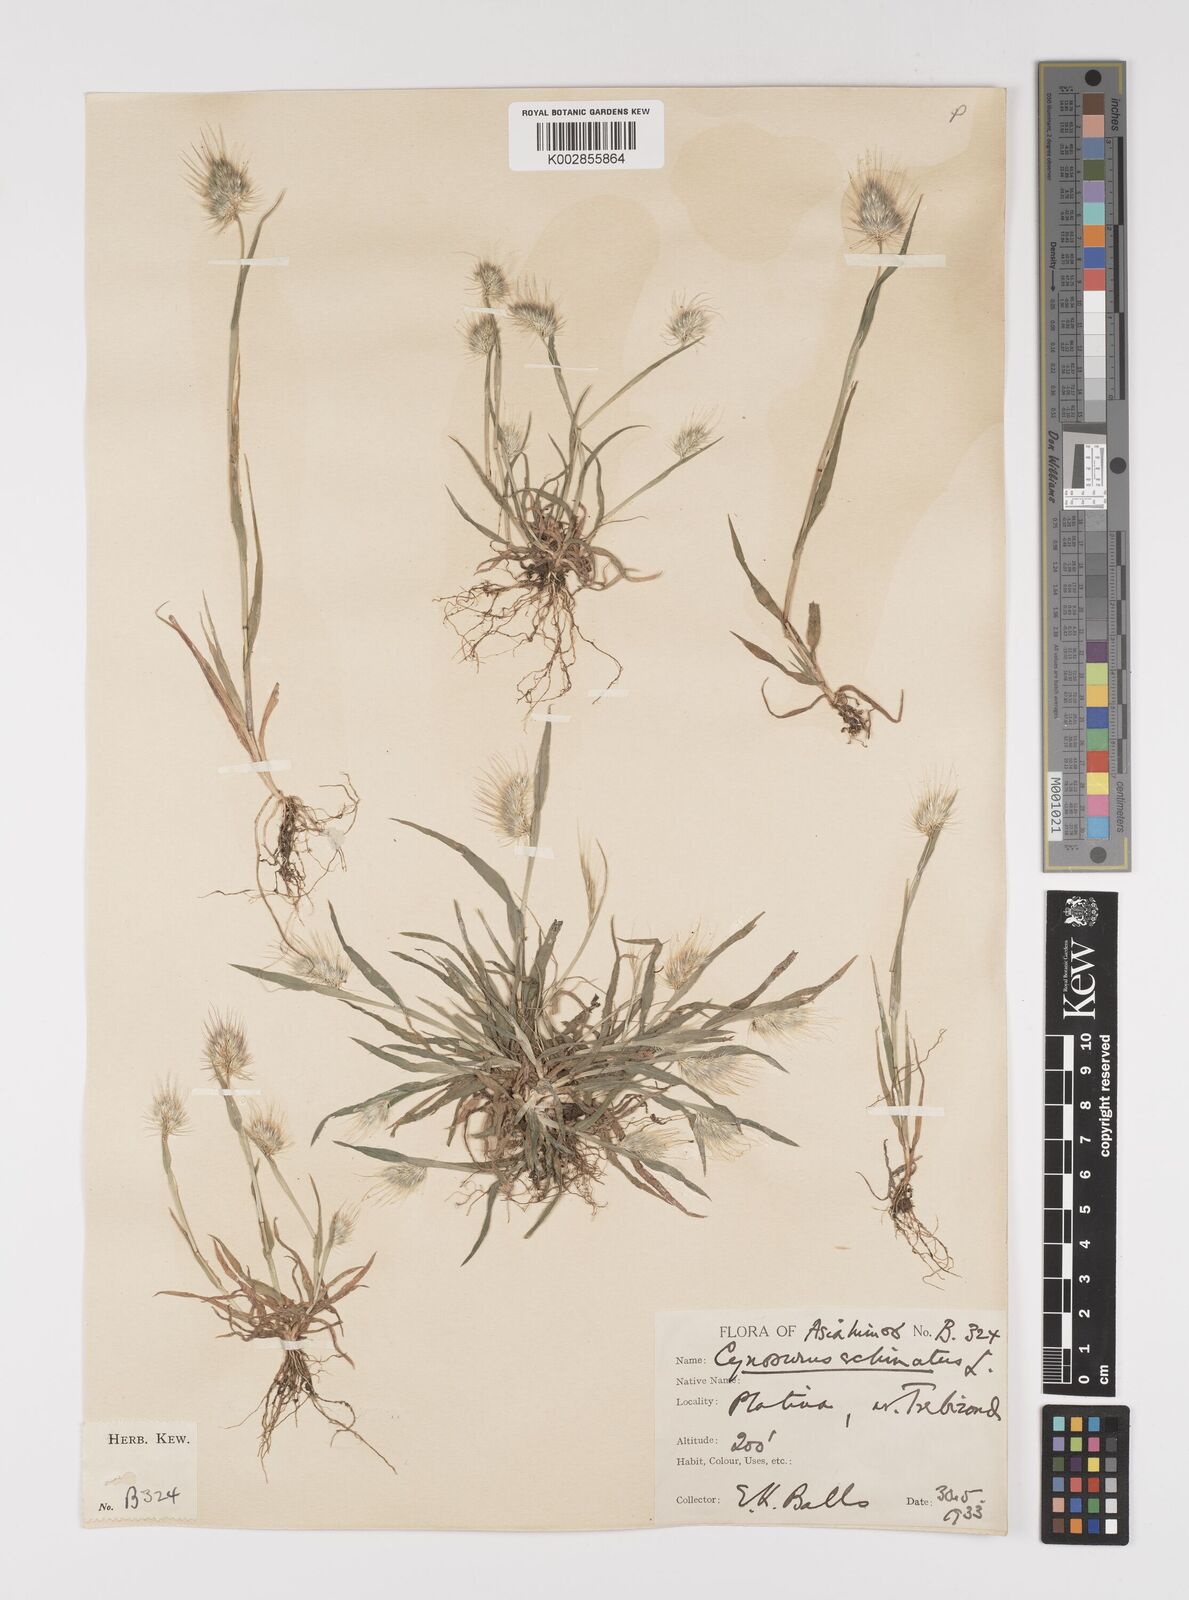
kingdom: Plantae
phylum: Tracheophyta
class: Liliopsida
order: Poales
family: Poaceae
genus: Cynosurus
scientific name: Cynosurus echinatus
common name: Rough dog's-tail
